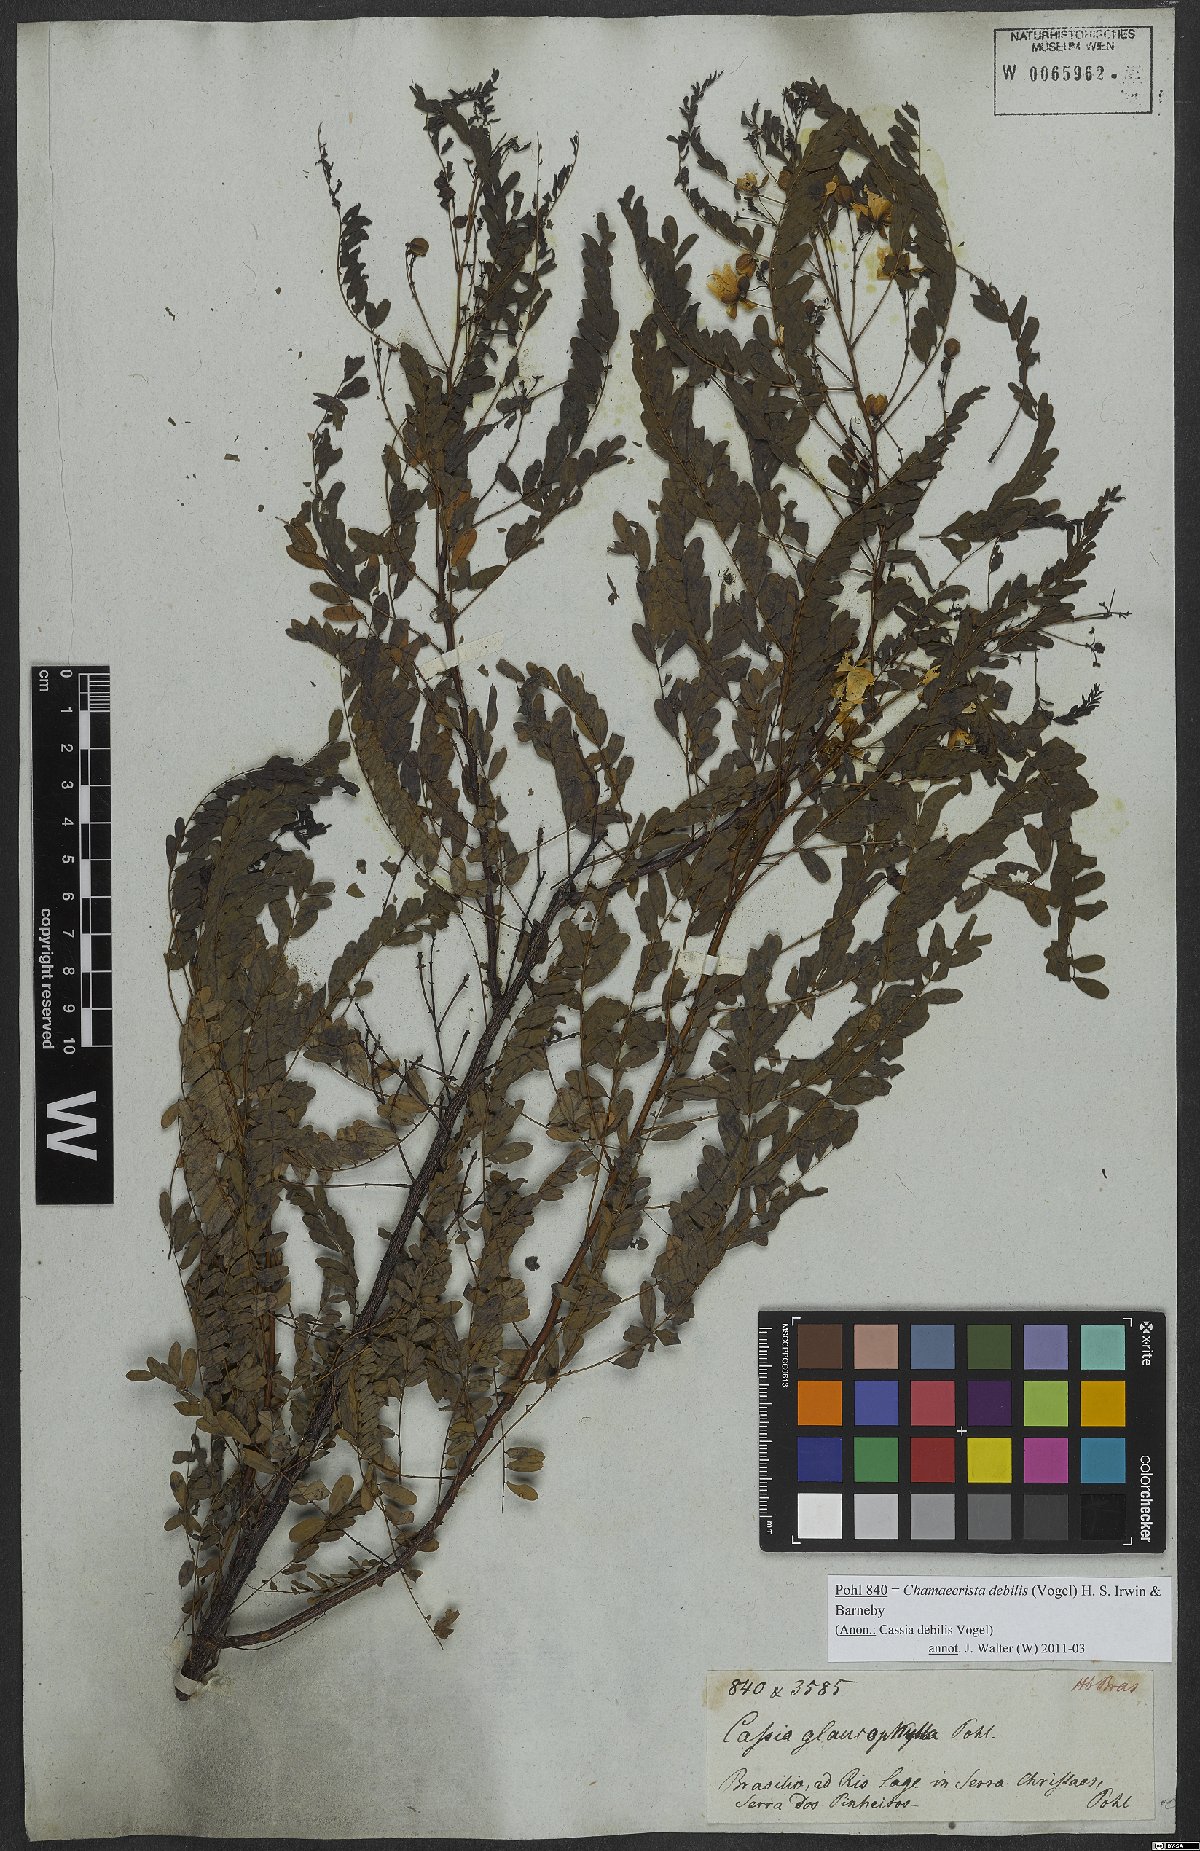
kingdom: Plantae
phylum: Tracheophyta
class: Magnoliopsida
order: Fabales
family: Fabaceae
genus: Chamaecrista
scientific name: Chamaecrista debilis
